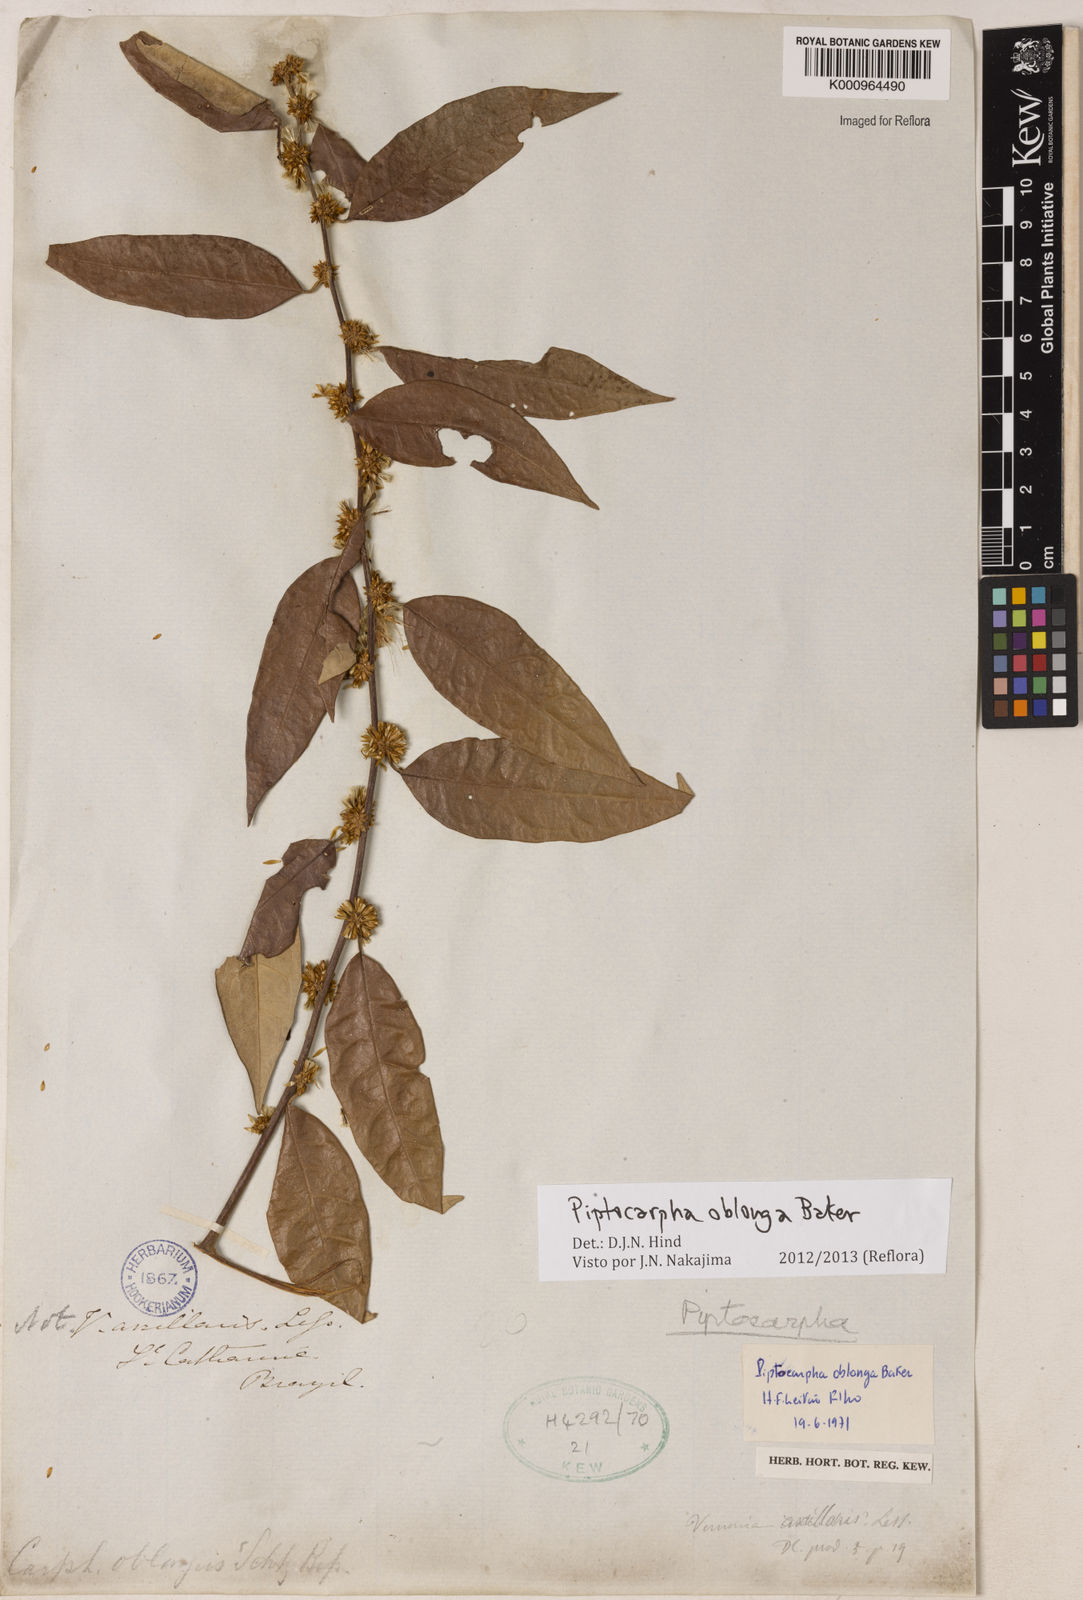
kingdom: Plantae
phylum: Tracheophyta
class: Magnoliopsida
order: Asterales
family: Asteraceae
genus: Piptocarpha
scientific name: Piptocarpha oblonga
